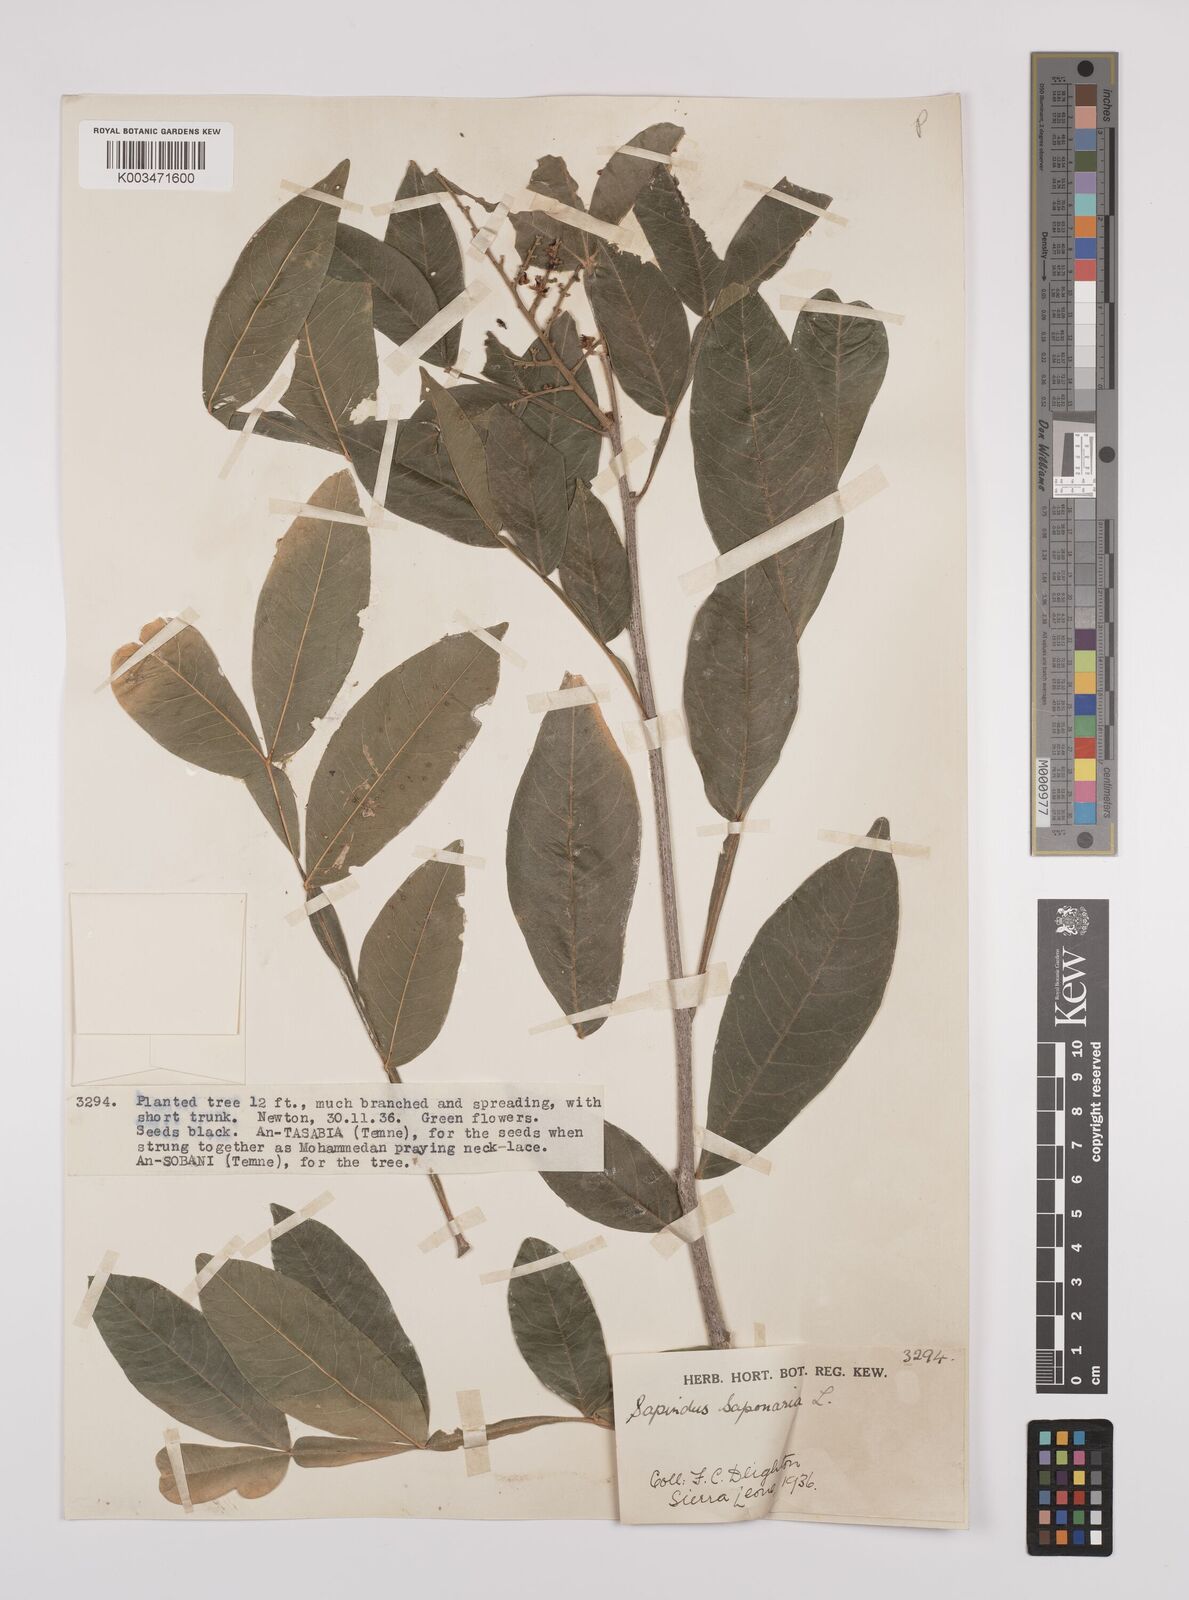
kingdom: Plantae
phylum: Tracheophyta
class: Magnoliopsida
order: Sapindales
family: Sapindaceae
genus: Sapindus
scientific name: Sapindus
